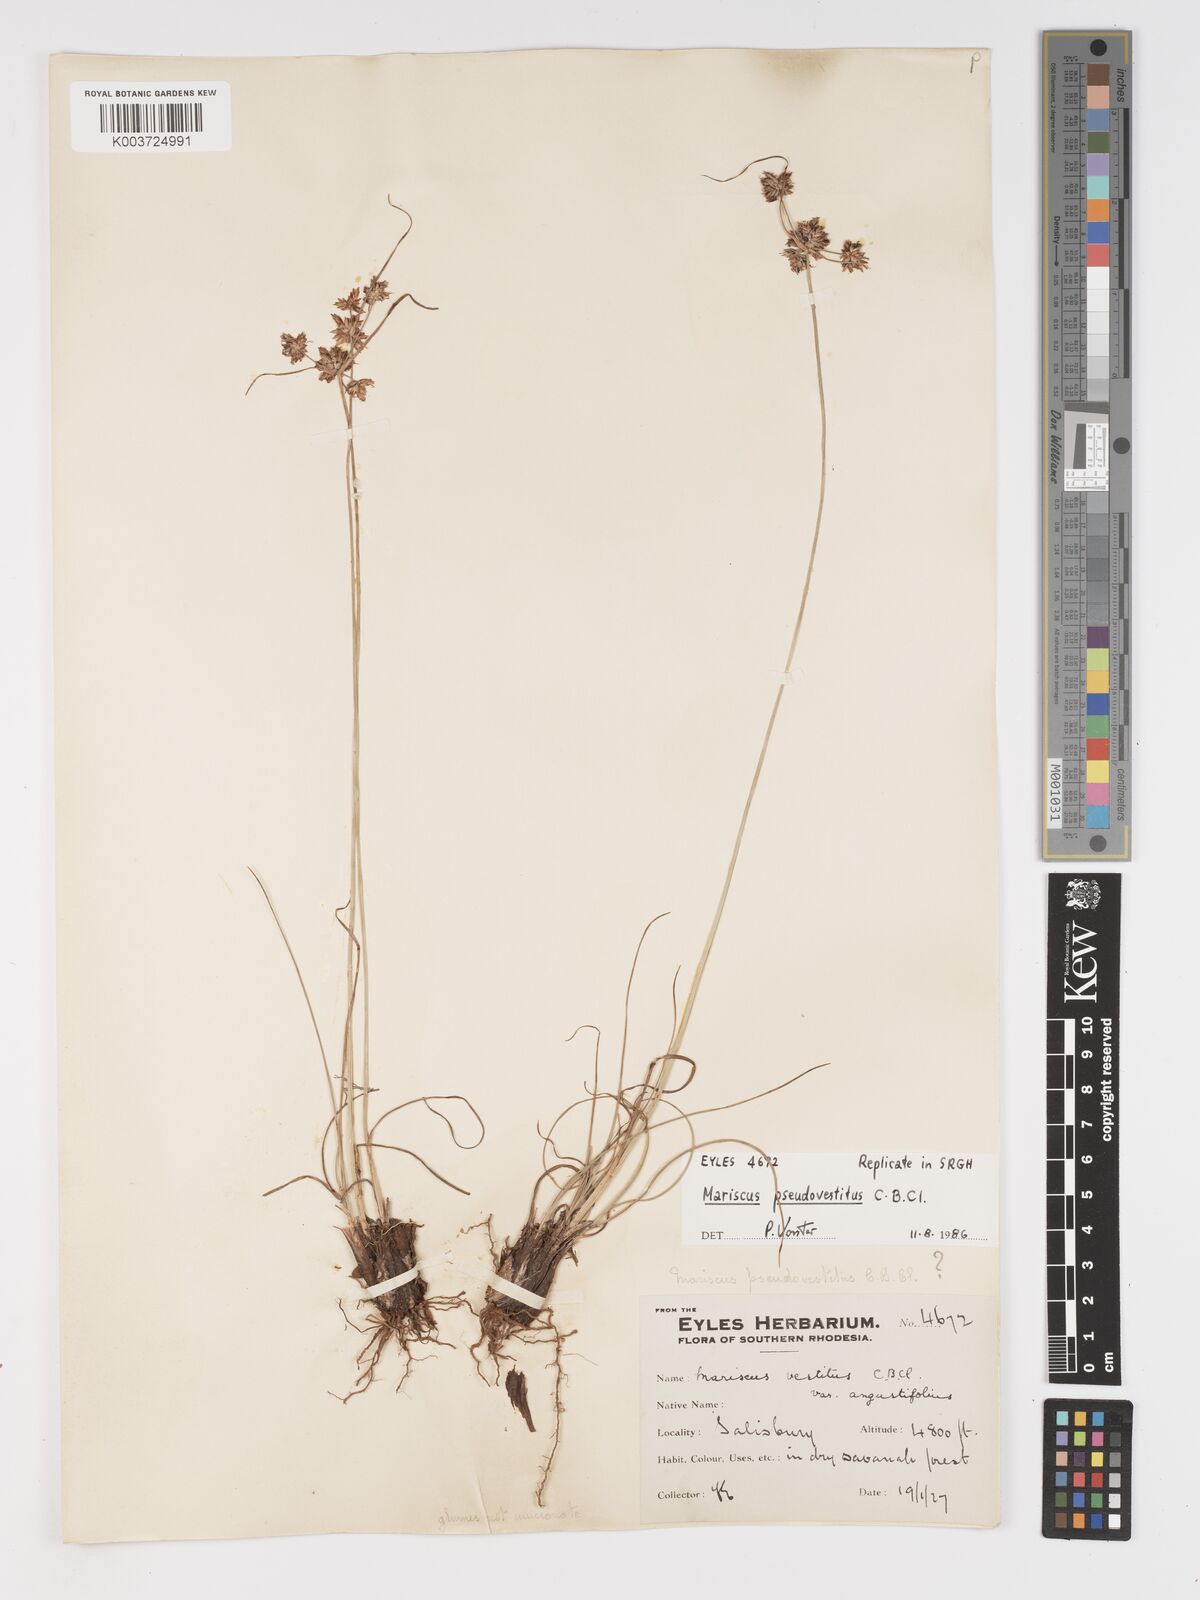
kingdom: Plantae
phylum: Tracheophyta
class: Liliopsida
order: Poales
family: Cyperaceae
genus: Cyperus
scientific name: Cyperus pseudovestitus
